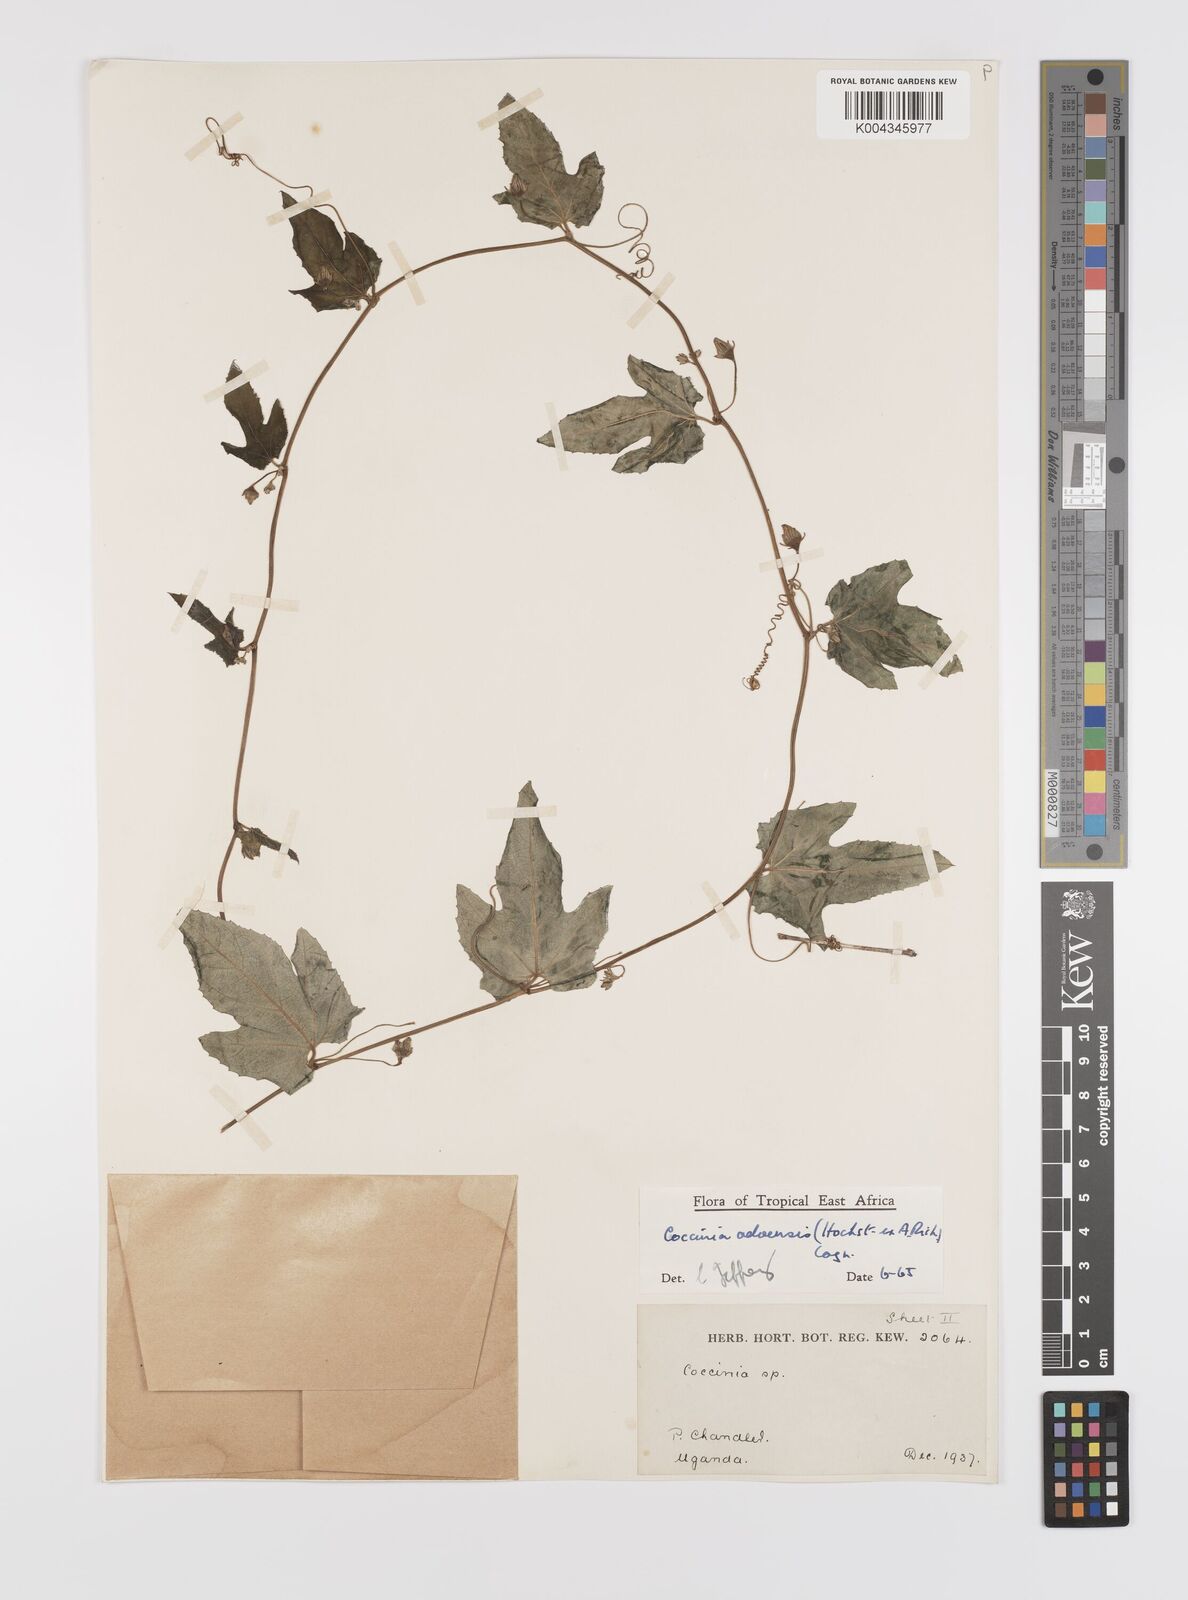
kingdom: Plantae
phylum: Tracheophyta
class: Magnoliopsida
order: Cucurbitales
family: Cucurbitaceae
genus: Coccinia
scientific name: Coccinia adoensis
